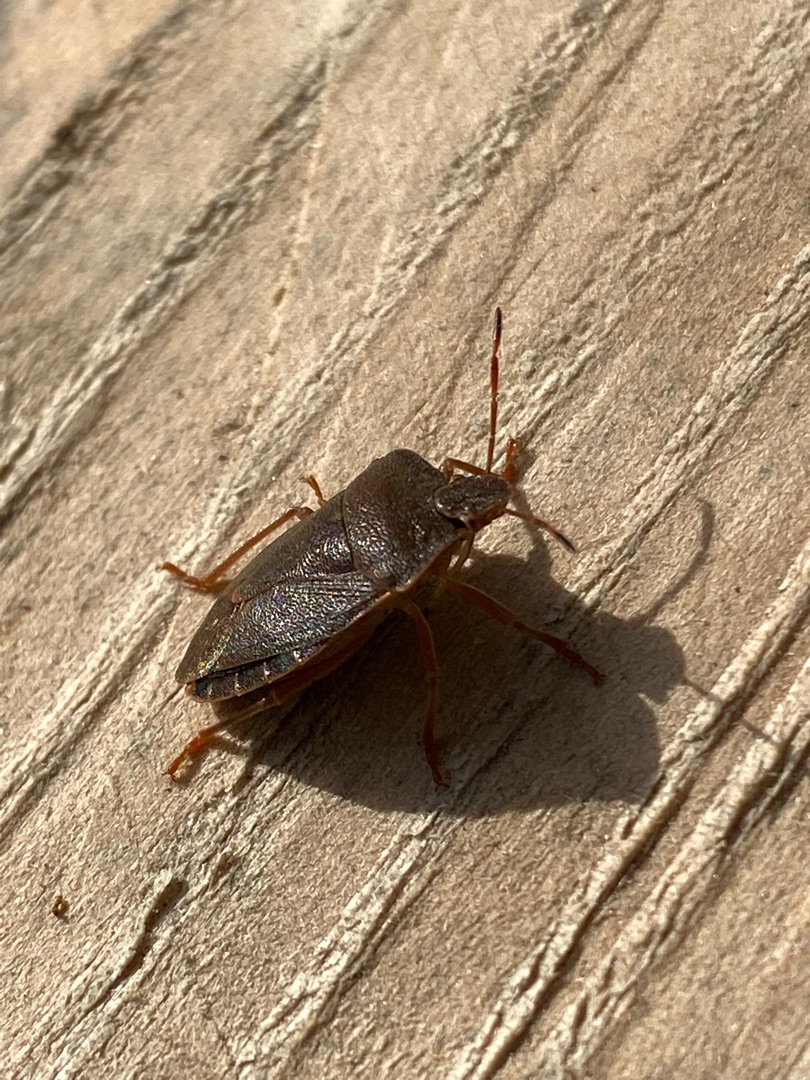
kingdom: Animalia
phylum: Arthropoda
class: Insecta
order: Hemiptera
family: Pentatomidae
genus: Palomena
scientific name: Palomena prasina
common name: Grøn bredtæge
